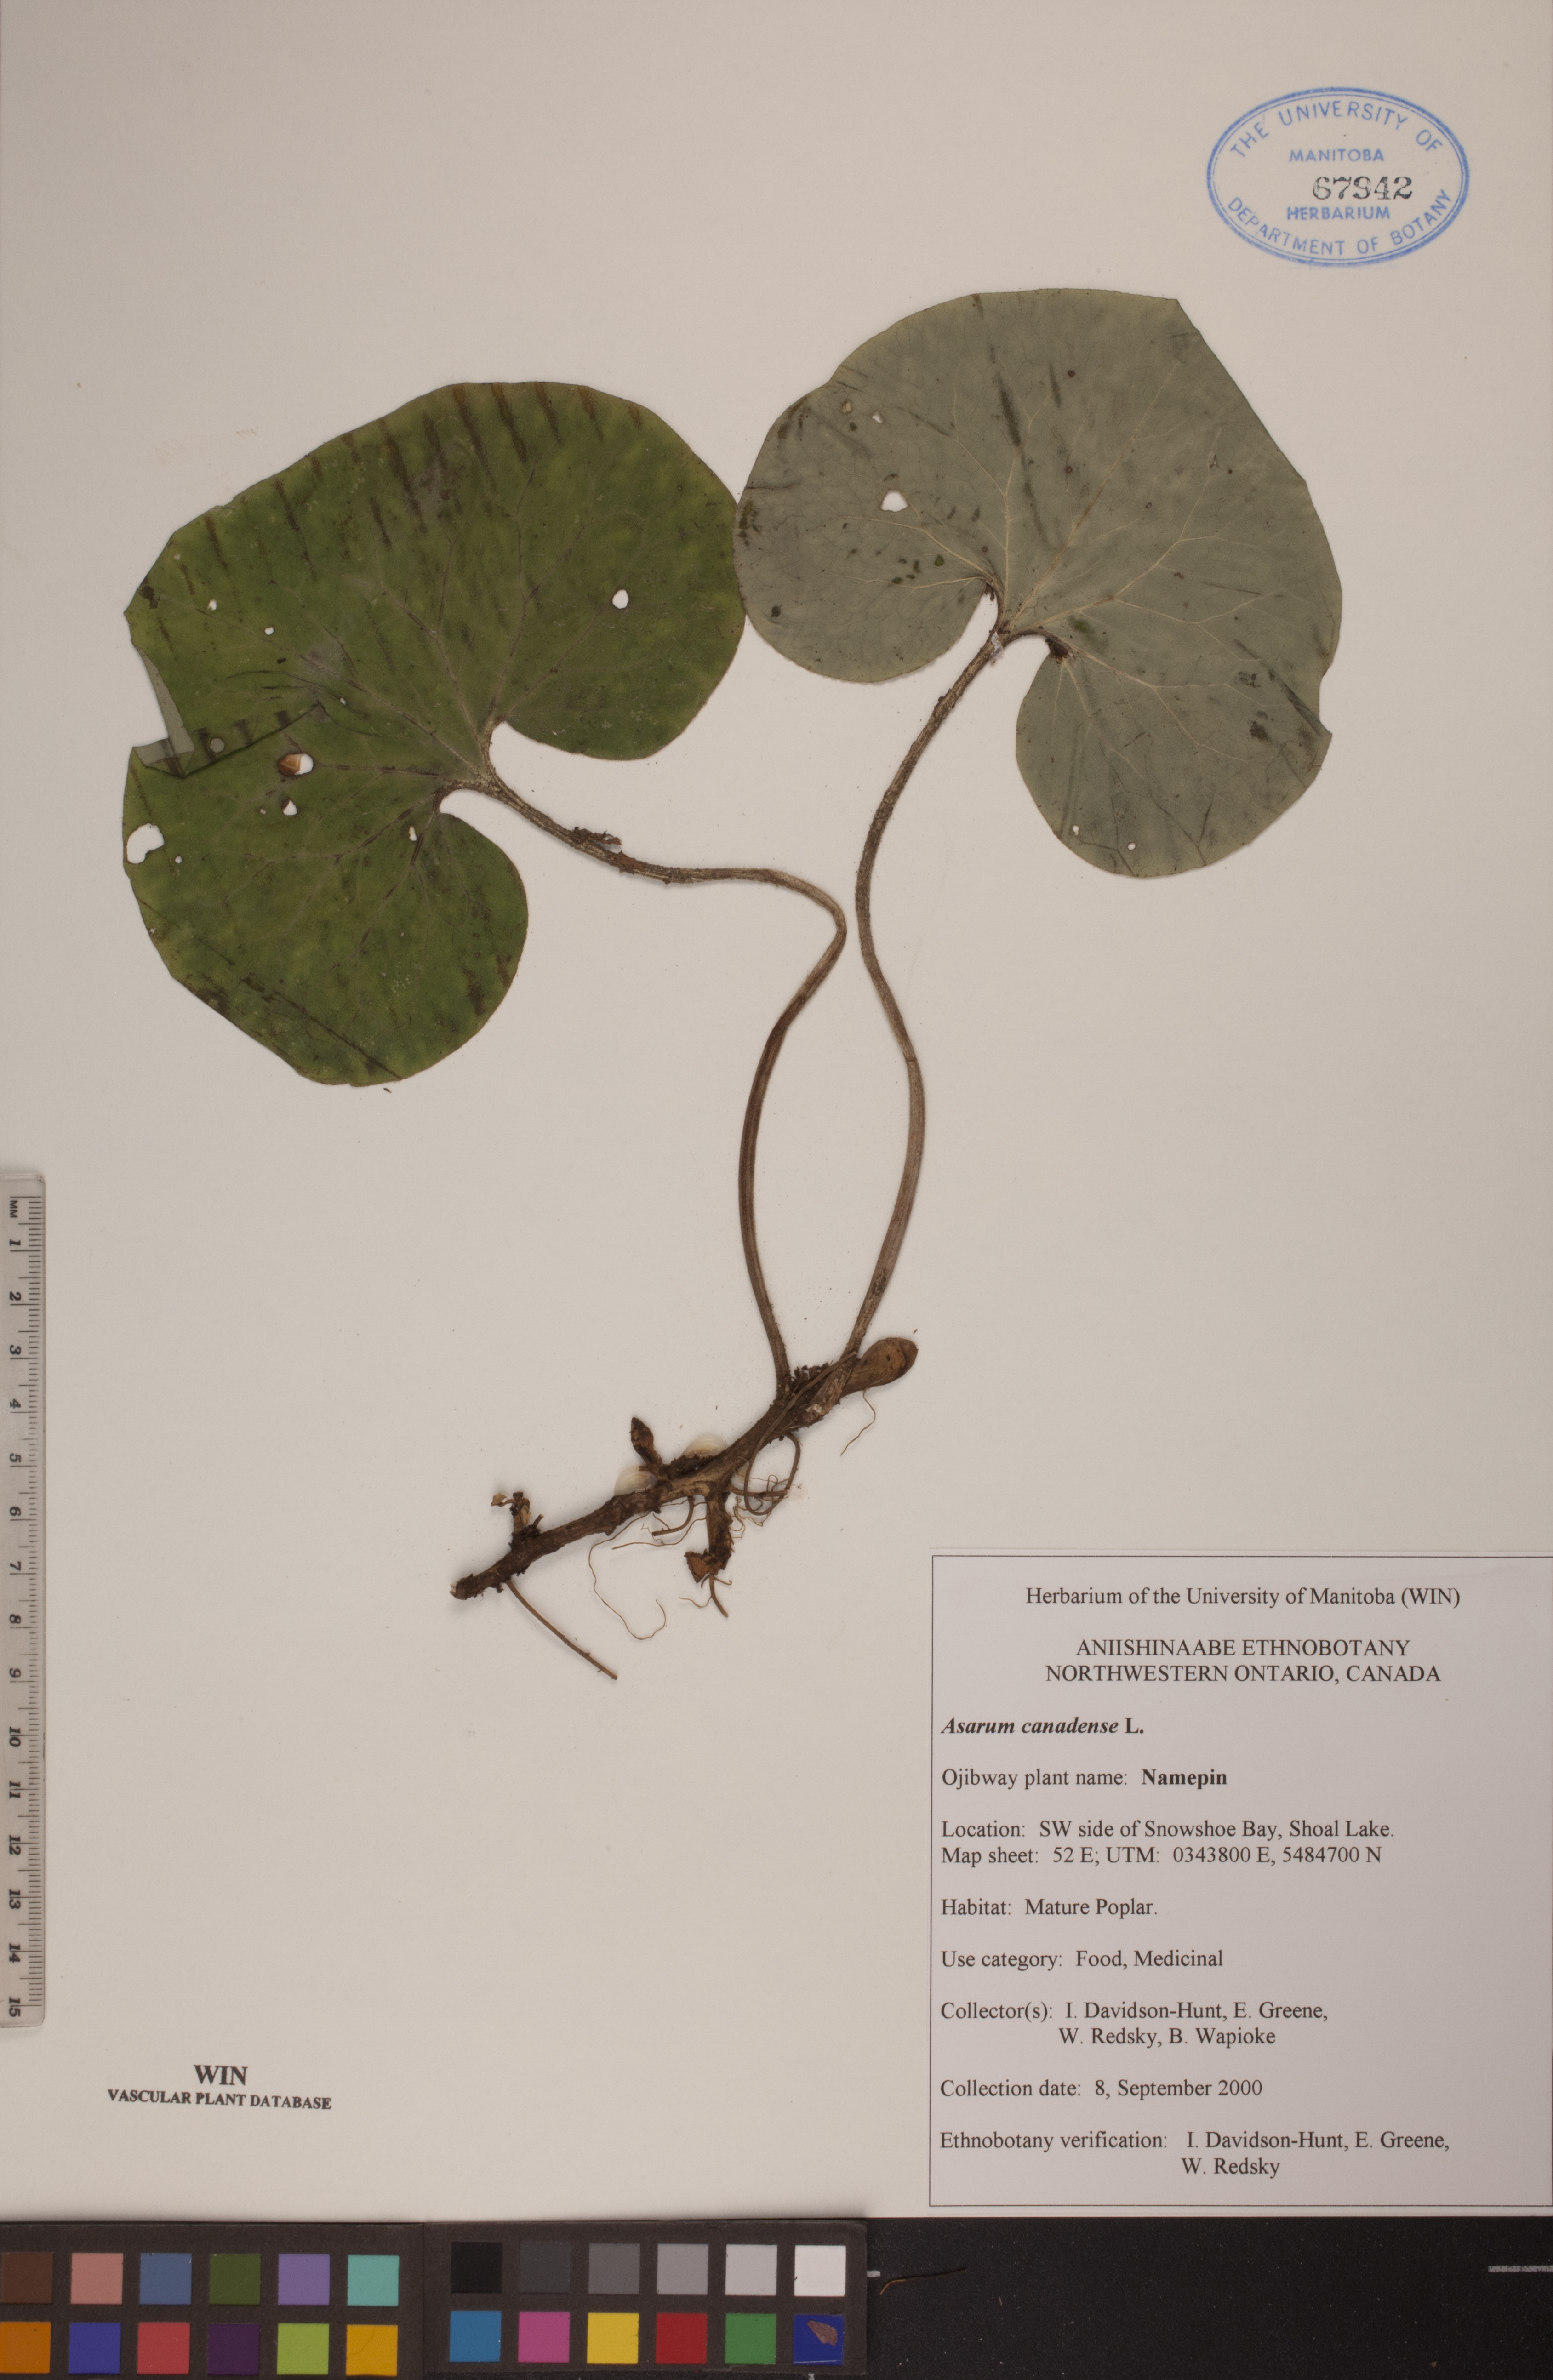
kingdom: Plantae
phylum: Tracheophyta
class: Magnoliopsida
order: Piperales
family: Aristolochiaceae
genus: Asarum
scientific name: Asarum canadense
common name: Wild ginger
